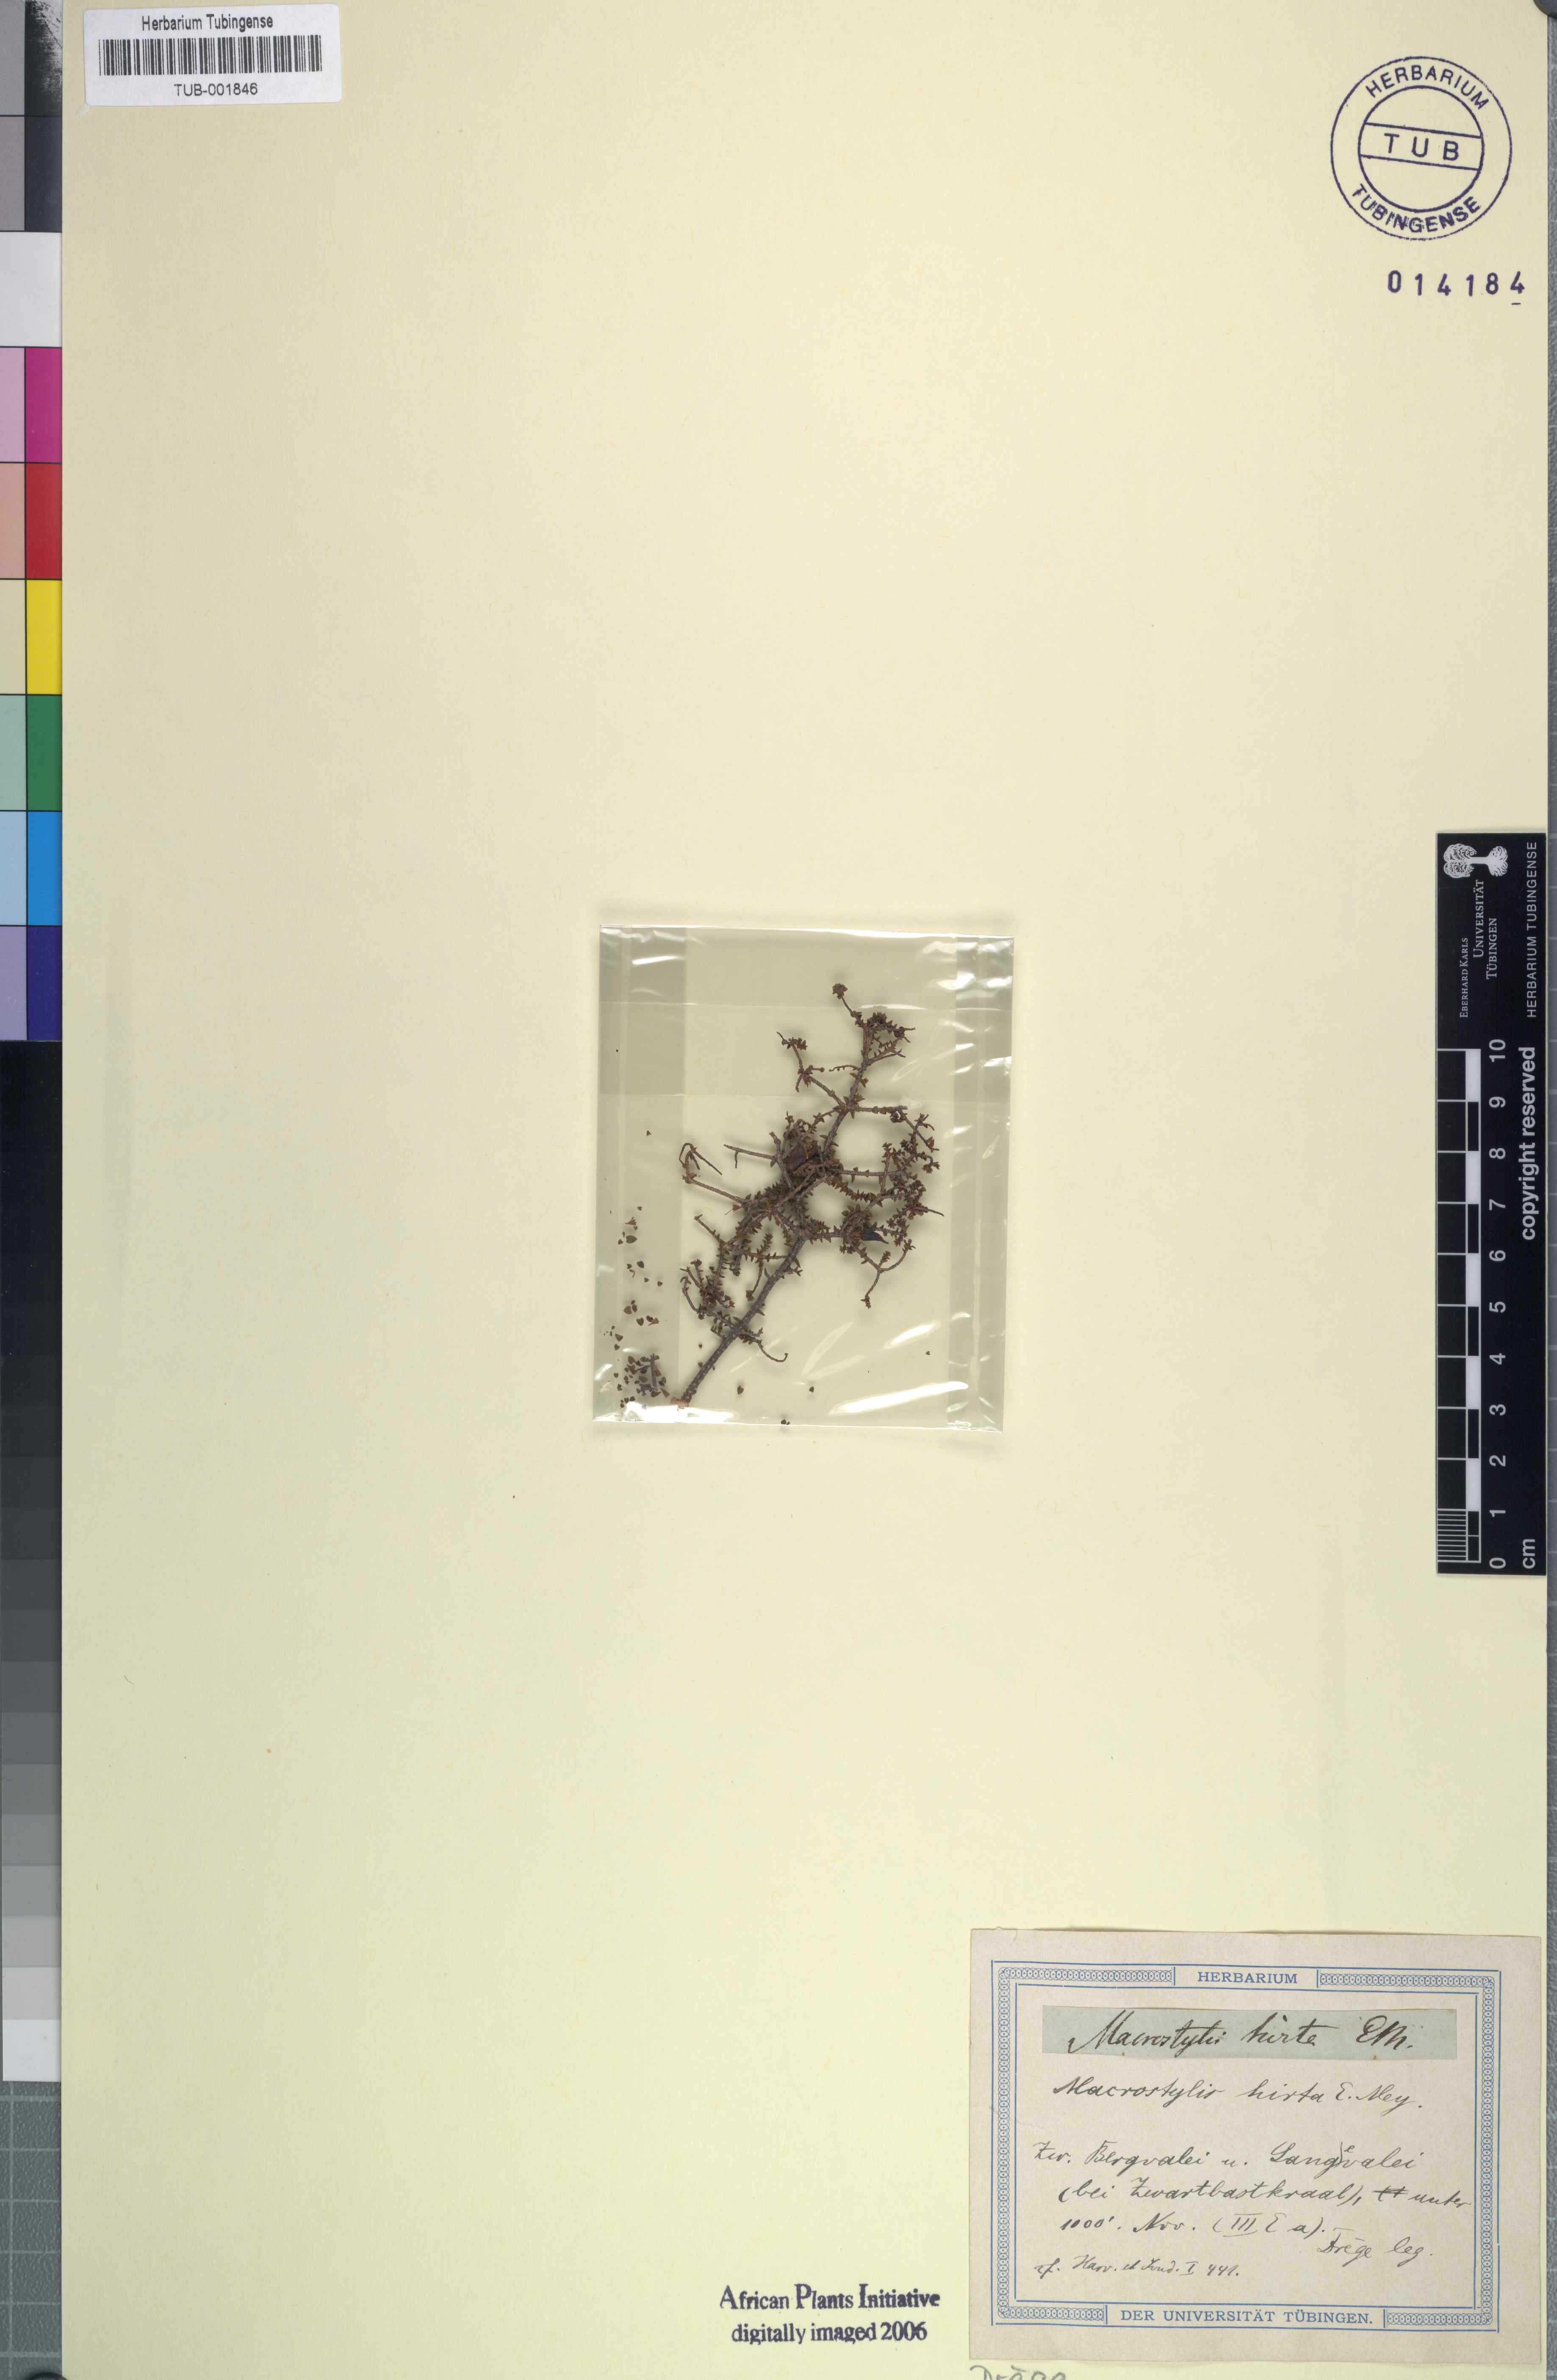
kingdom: Plantae
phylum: Tracheophyta
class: Magnoliopsida
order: Sapindales
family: Rutaceae
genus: Macrostylis
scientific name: Macrostylis hirta
